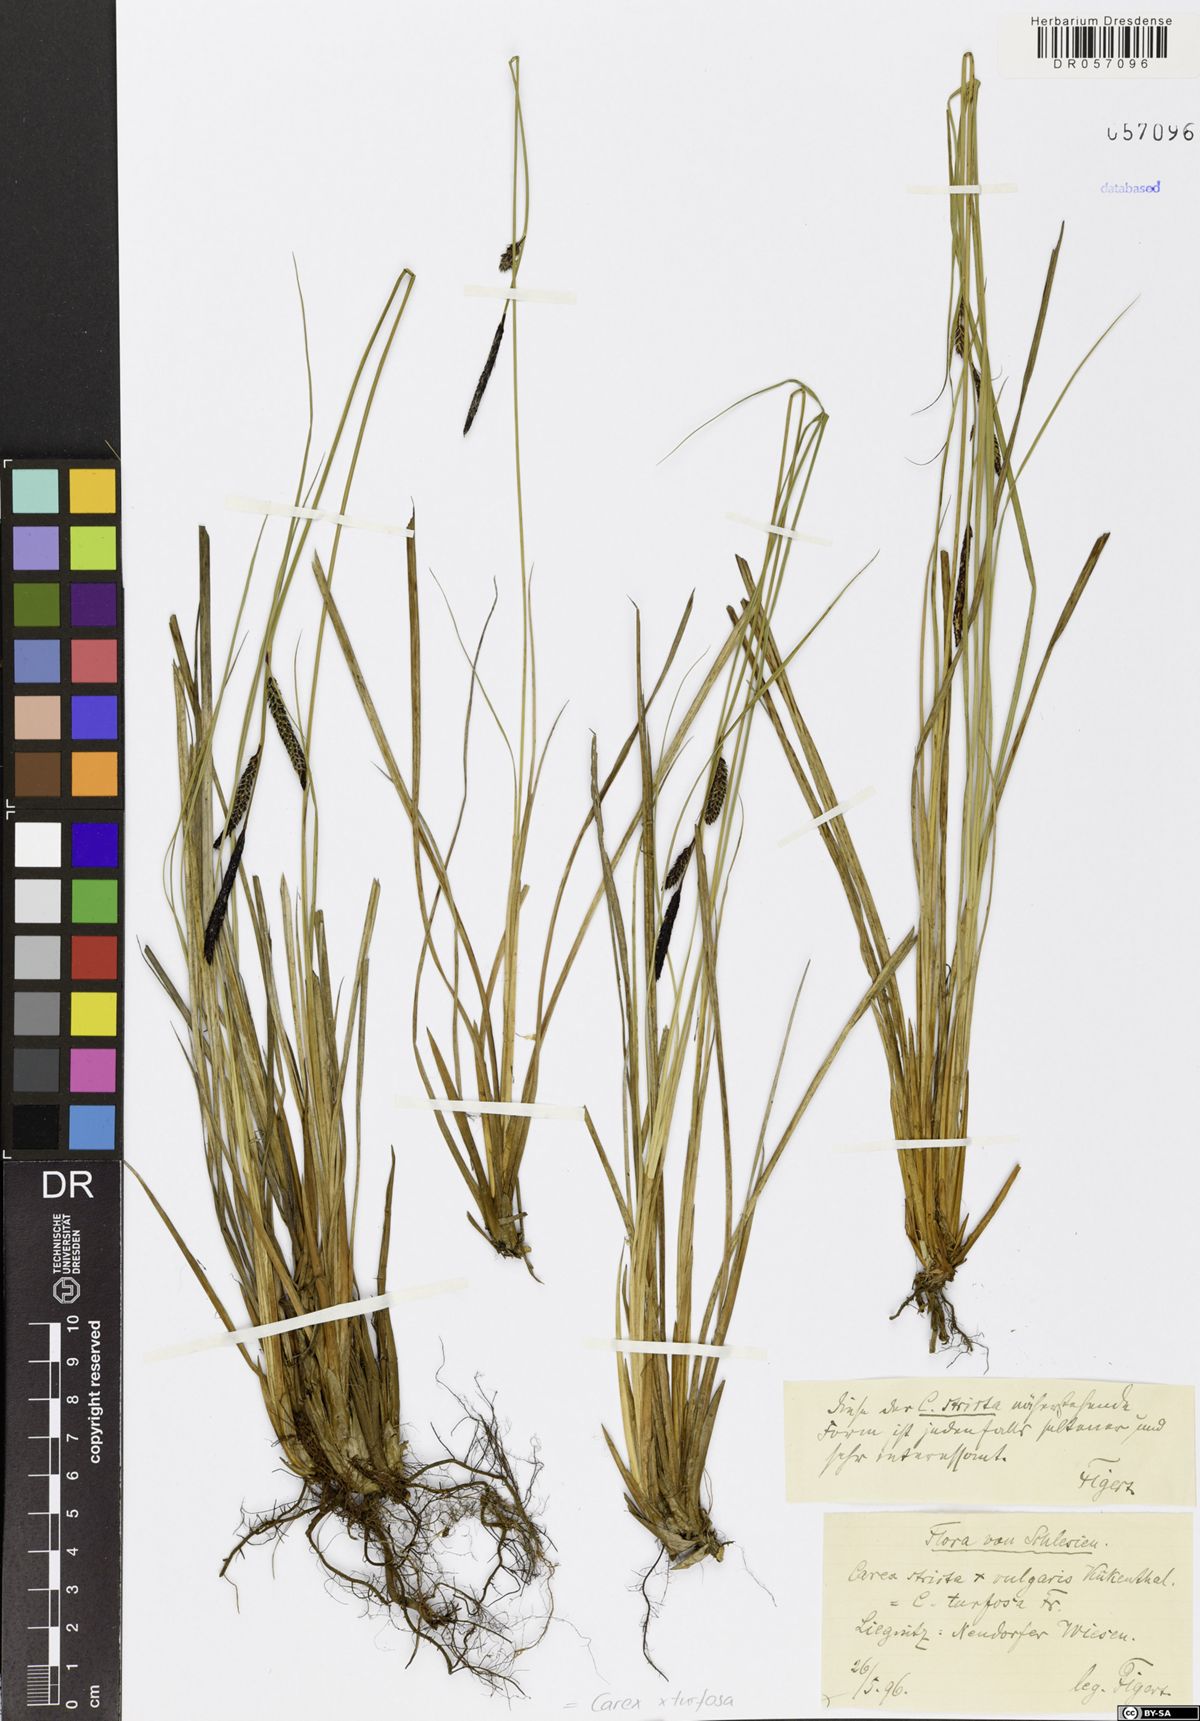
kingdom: Plantae
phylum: Tracheophyta
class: Liliopsida
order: Poales
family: Cyperaceae
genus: Carex
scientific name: Carex turfosa
